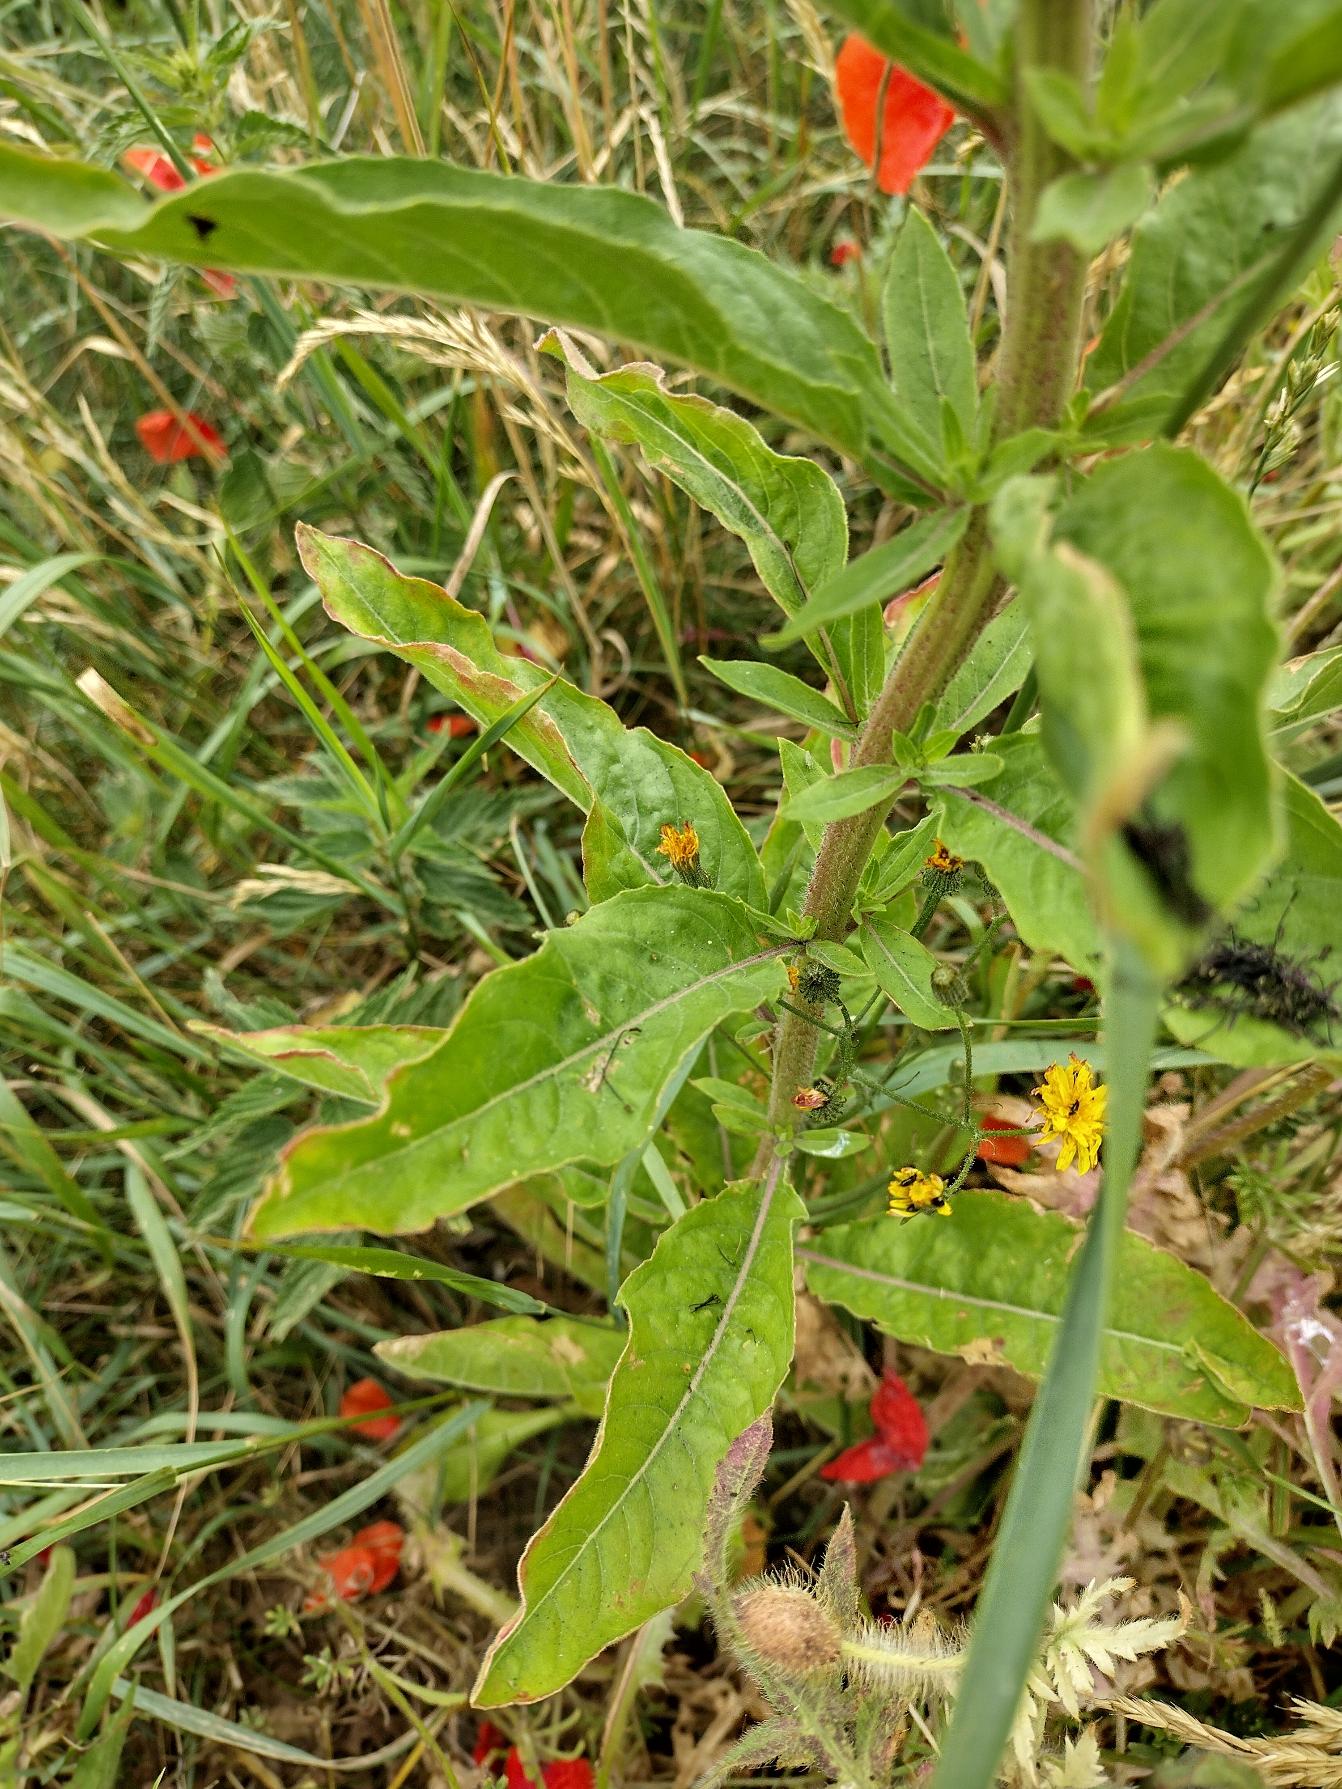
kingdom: Plantae
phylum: Tracheophyta
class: Magnoliopsida
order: Myrtales
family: Onagraceae
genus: Oenothera
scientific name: Oenothera glazioviana
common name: Kæmpe-natlys
